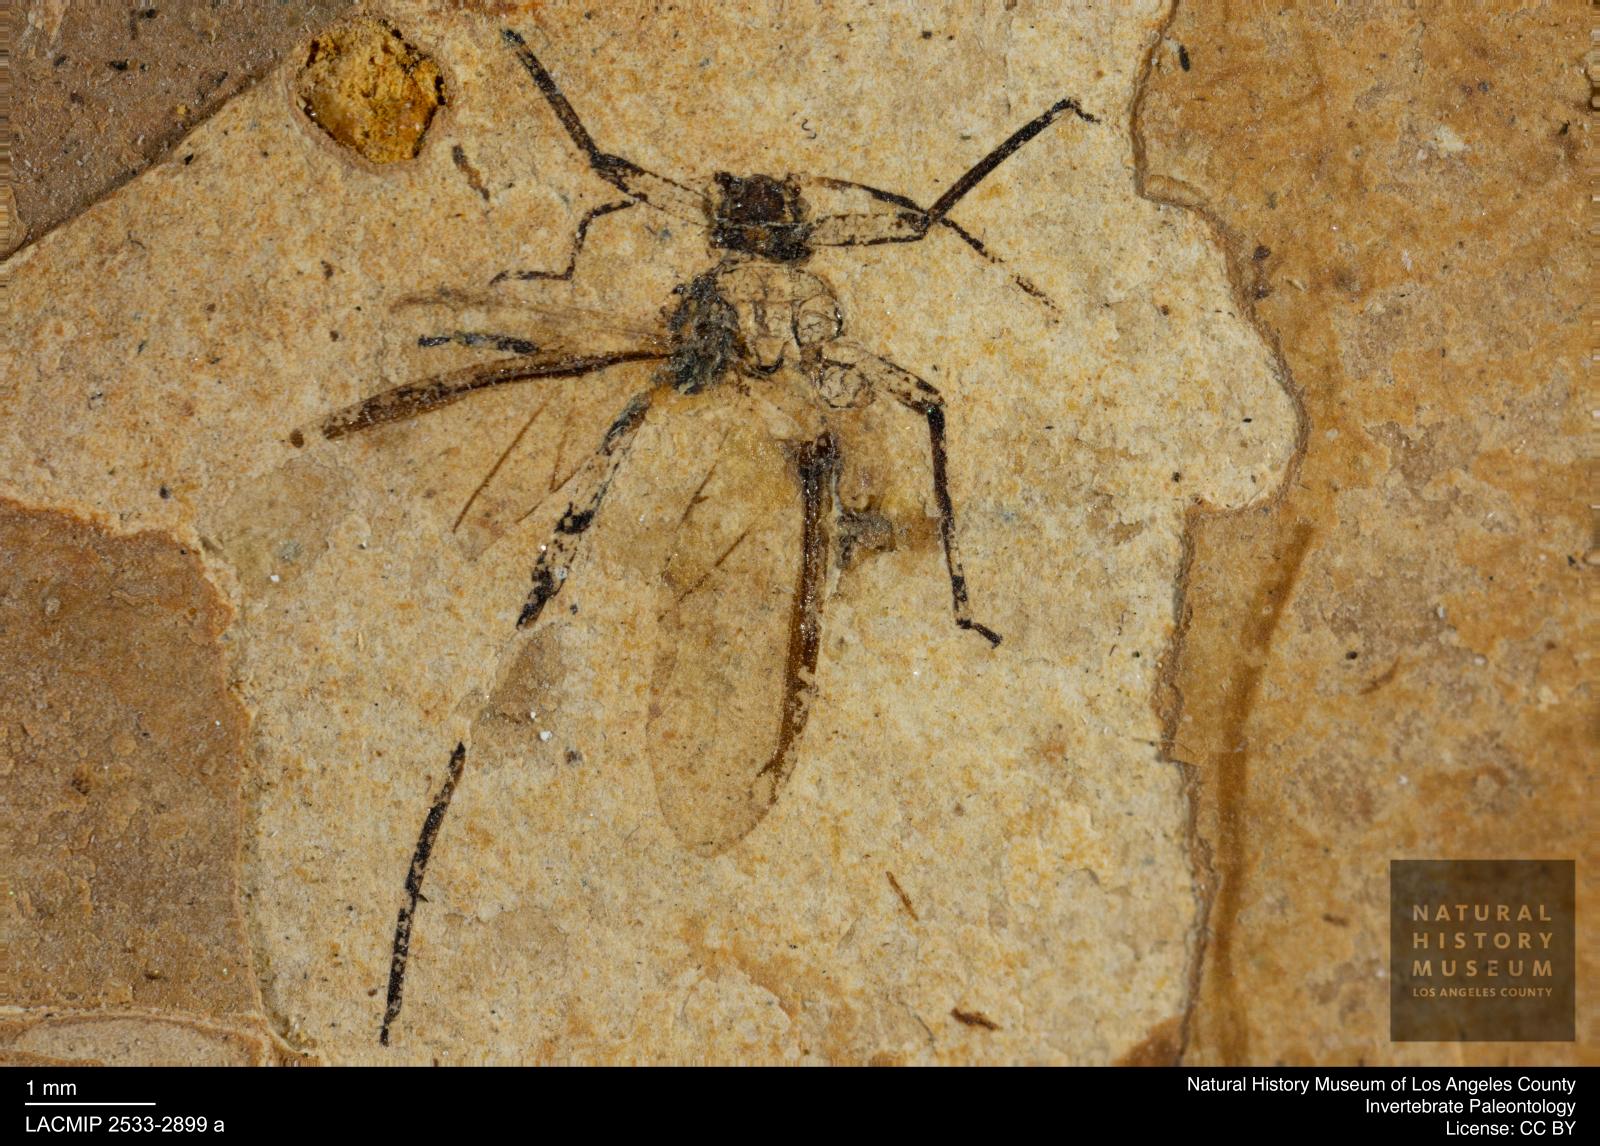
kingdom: Animalia
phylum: Arthropoda
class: Insecta
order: Hemiptera
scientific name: Hemiptera
